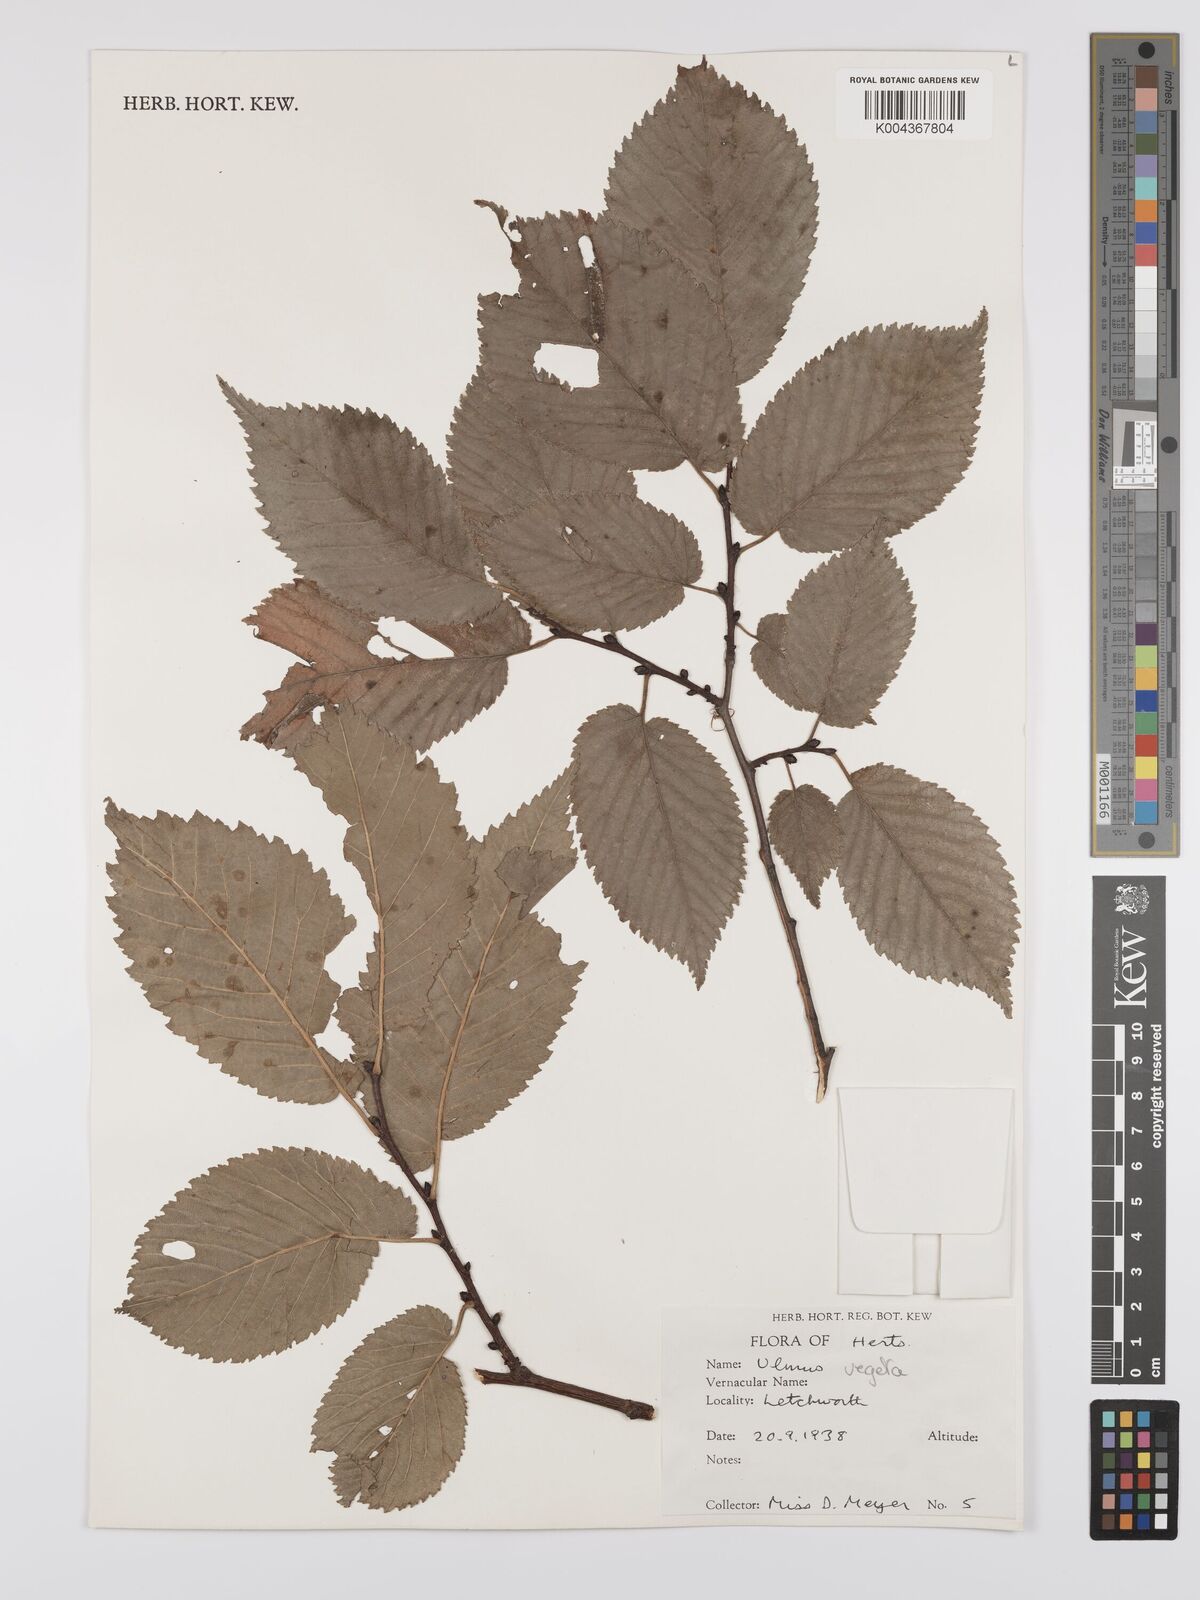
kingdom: Plantae
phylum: Tracheophyta
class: Magnoliopsida
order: Rosales
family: Ulmaceae
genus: Ulmus
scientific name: Ulmus hollandica
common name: Dutch elm
